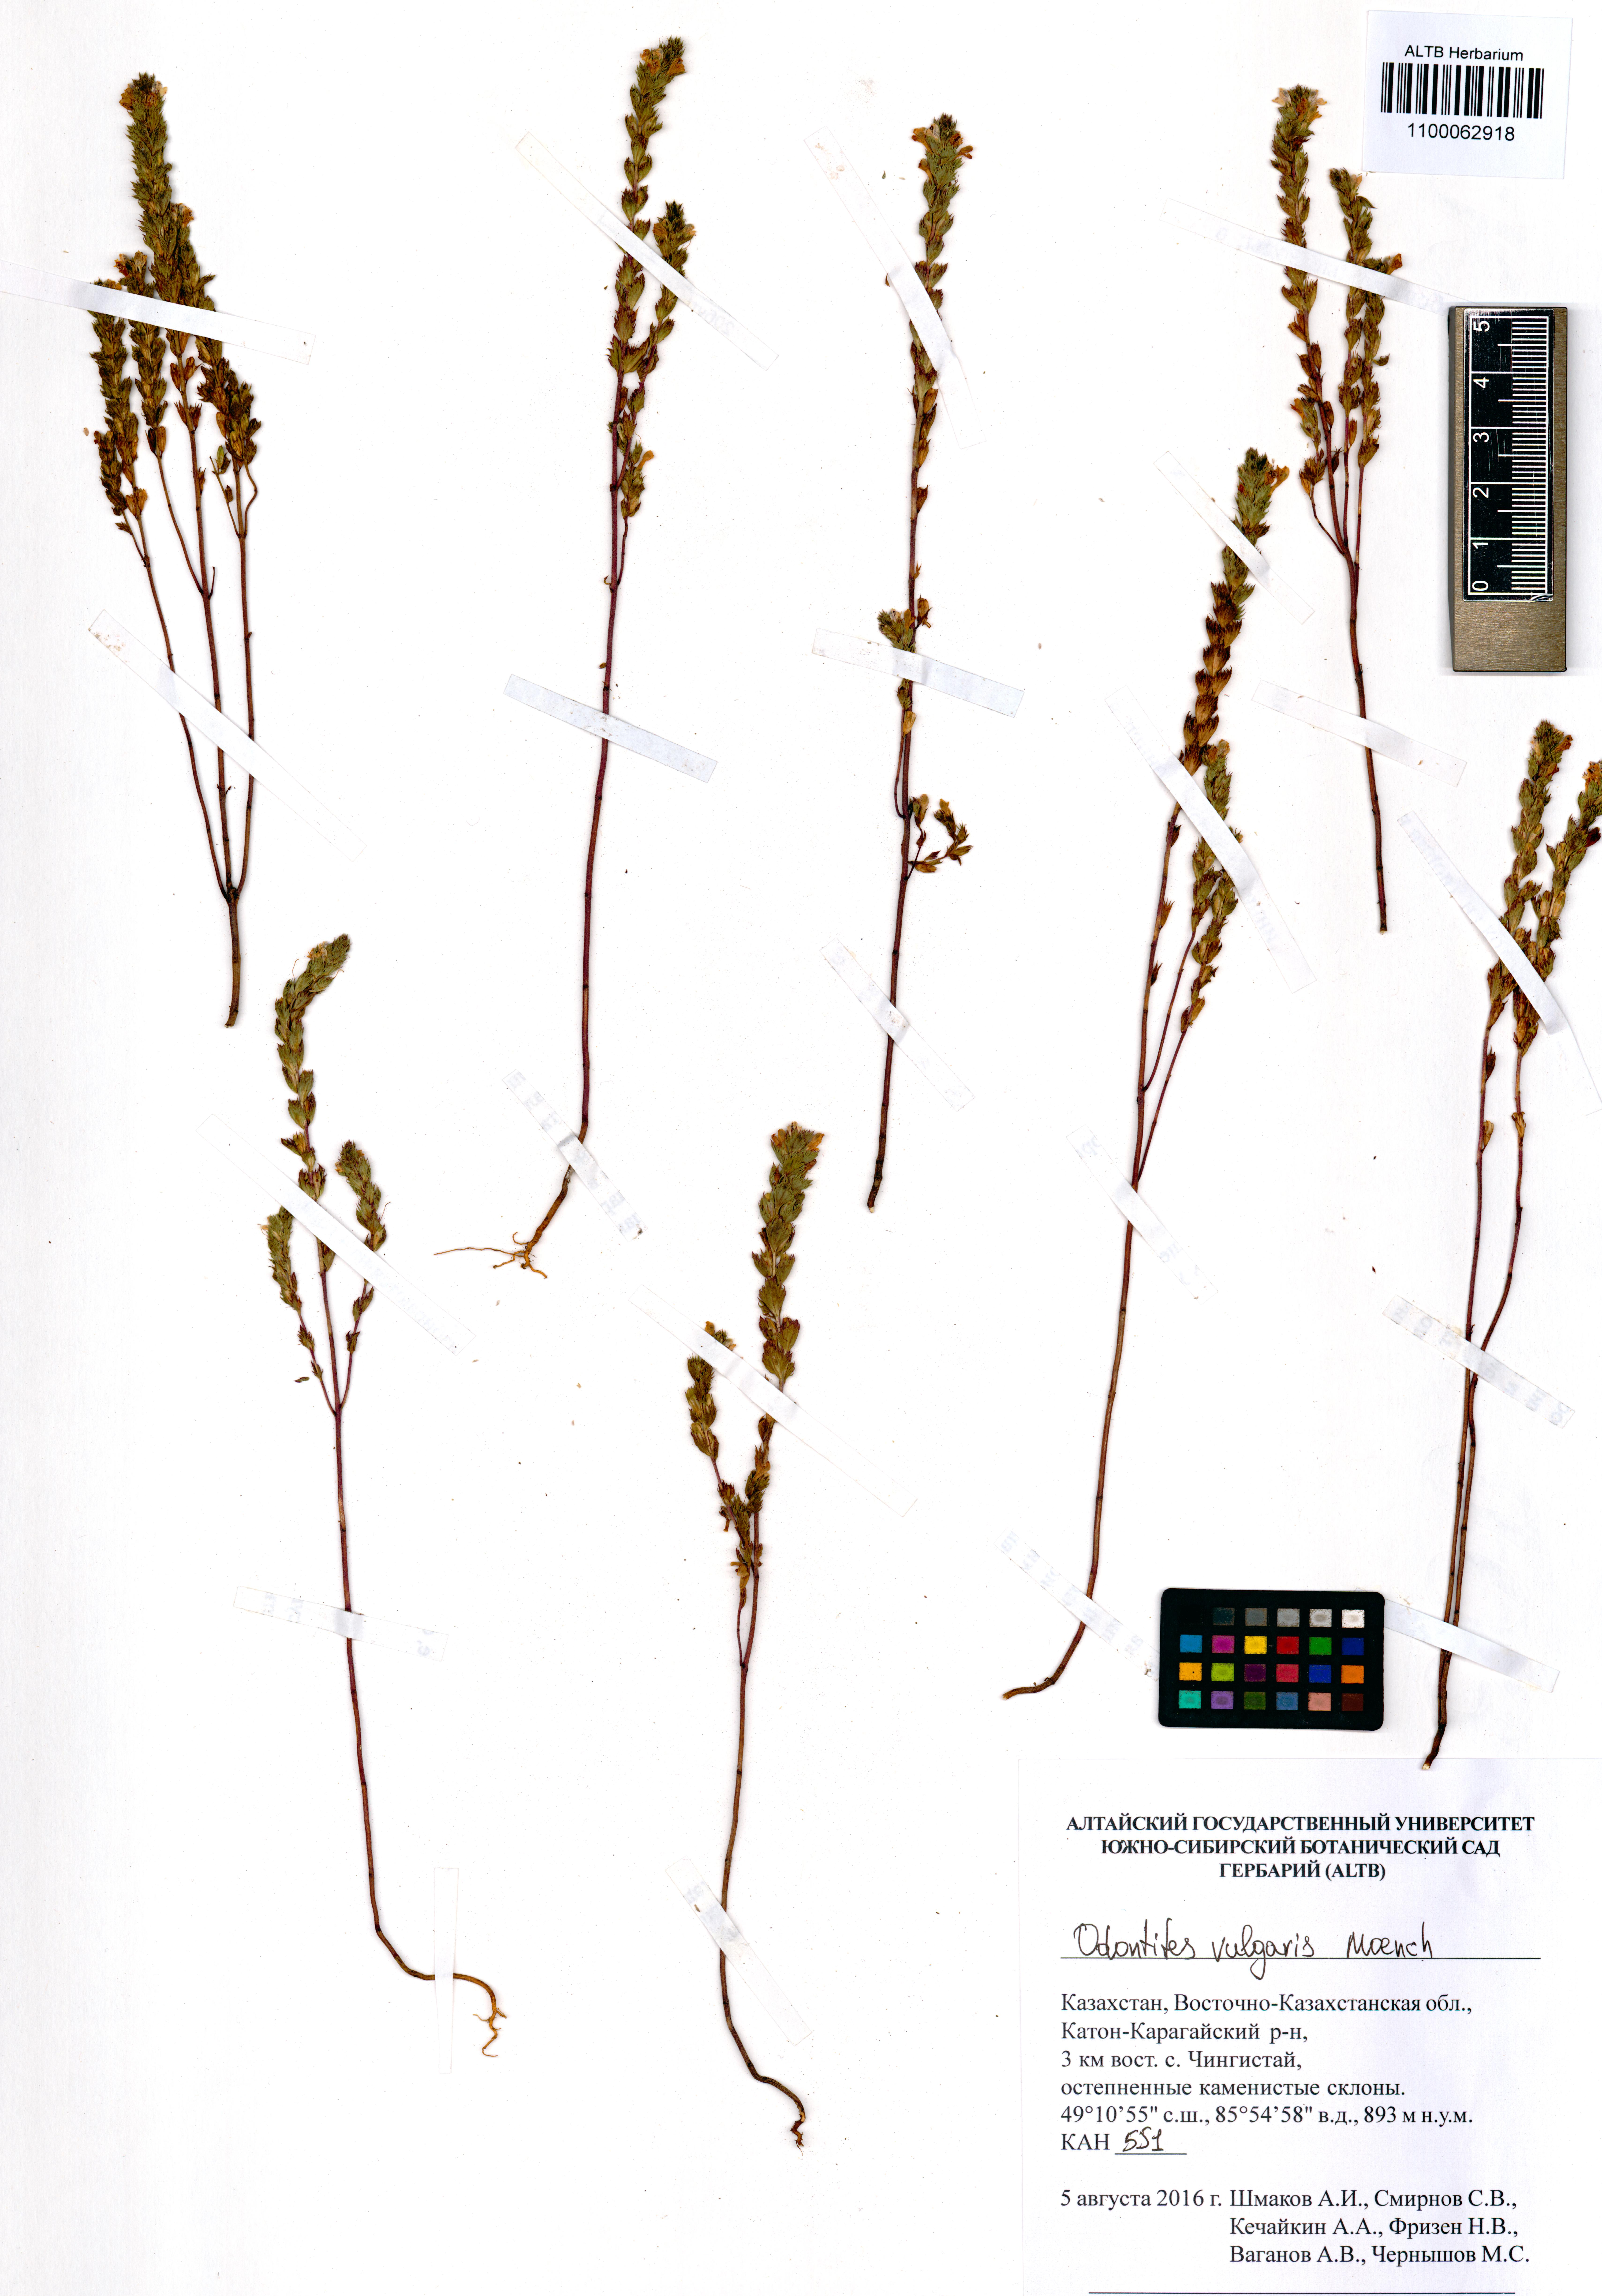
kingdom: Plantae
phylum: Tracheophyta
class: Magnoliopsida
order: Lamiales
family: Orobanchaceae
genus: Odontites
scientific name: Odontites vulgaris
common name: Broomrape
